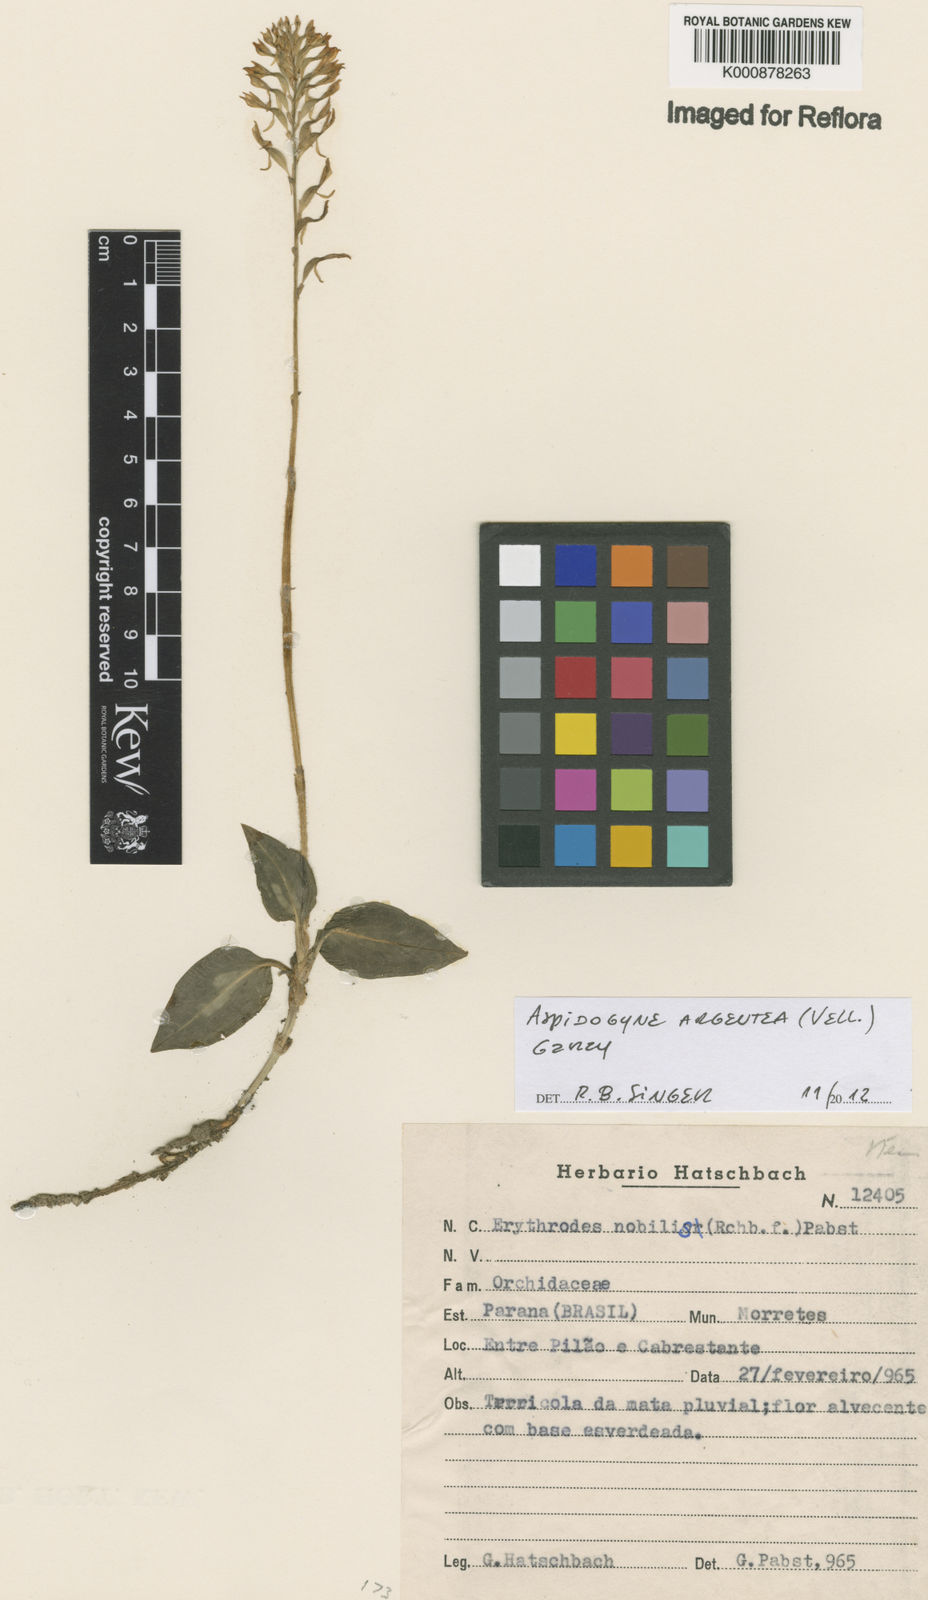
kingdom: Plantae
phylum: Tracheophyta
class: Liliopsida
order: Asparagales
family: Orchidaceae
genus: Aspidogyne
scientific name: Aspidogyne argentea
